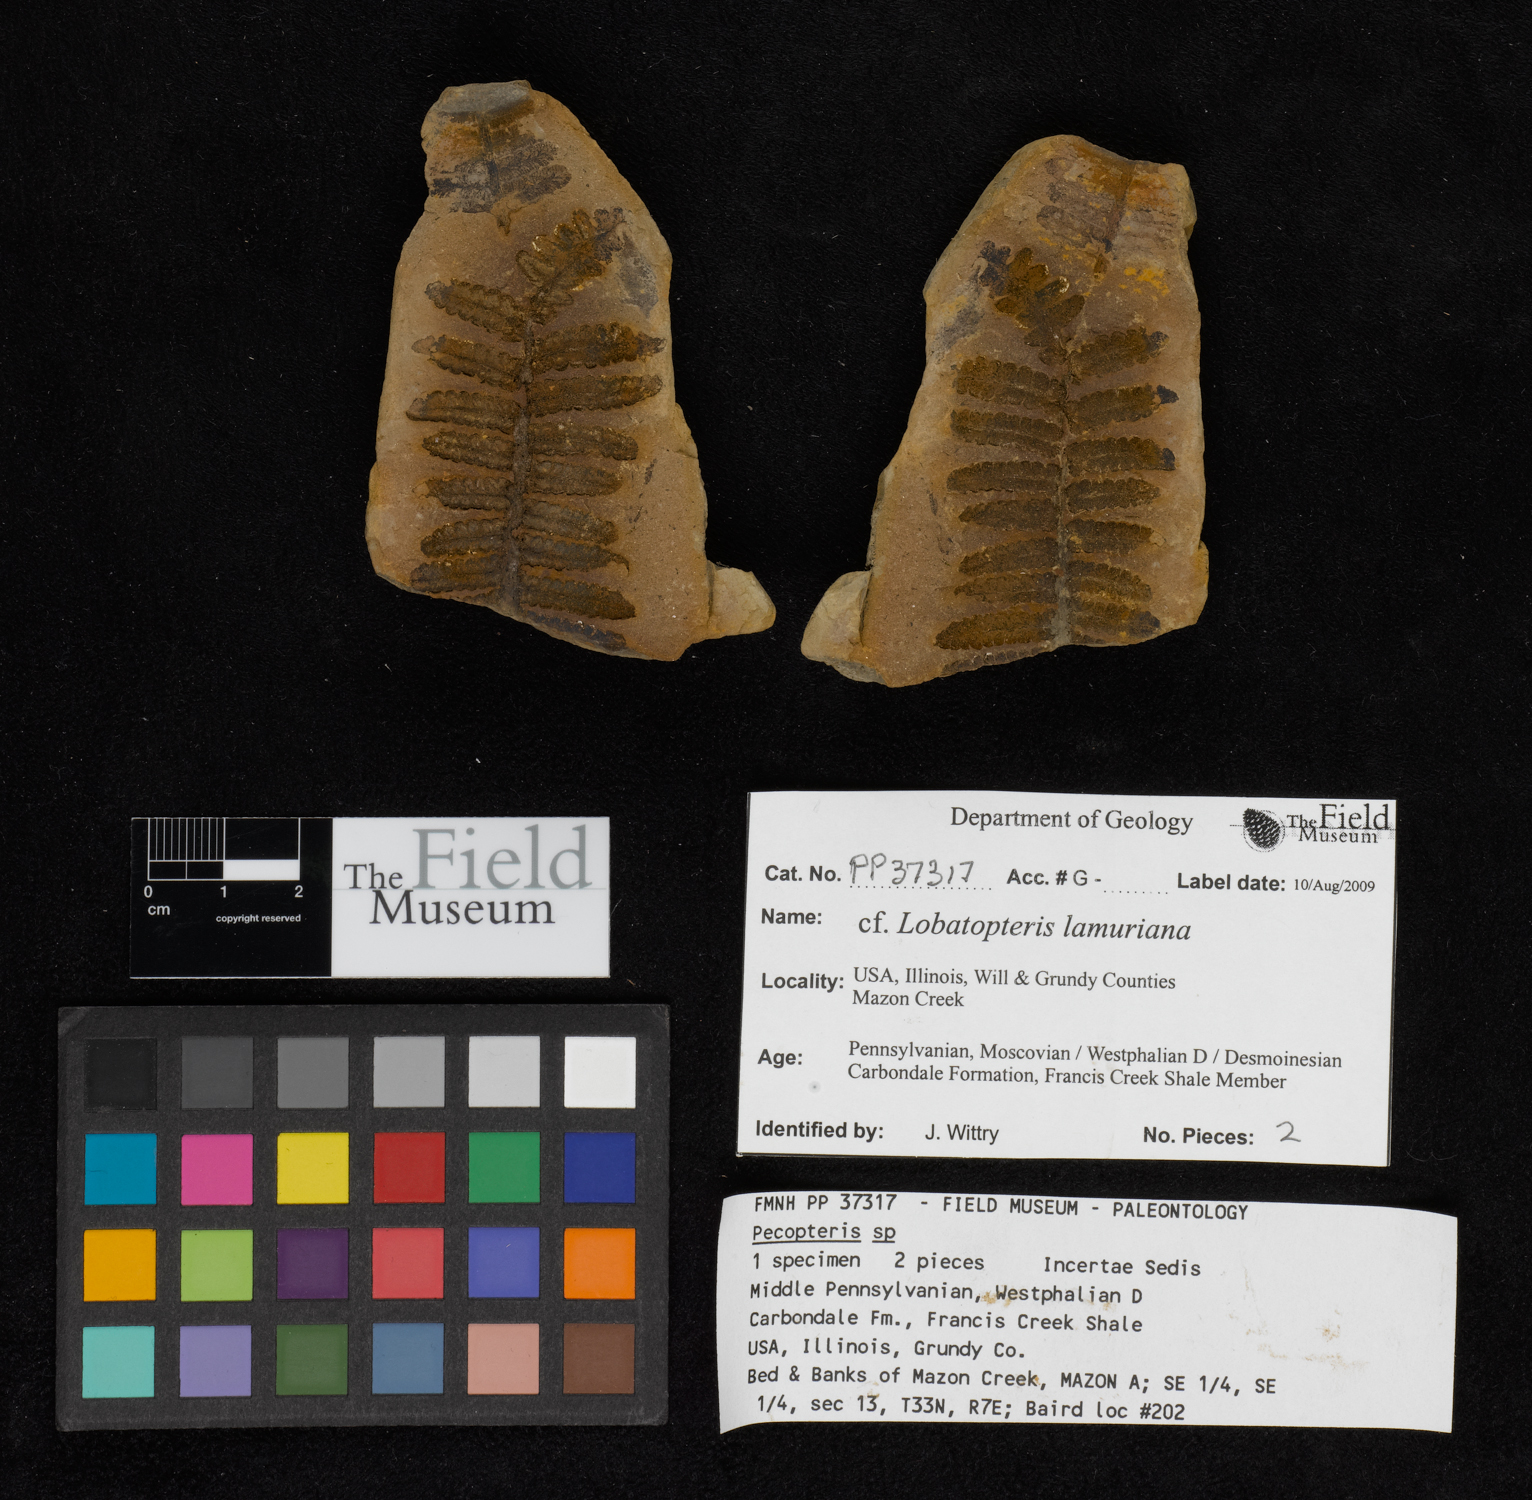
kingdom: Plantae
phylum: Tracheophyta
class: Polypodiopsida
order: Marattiales
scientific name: Marattiales
